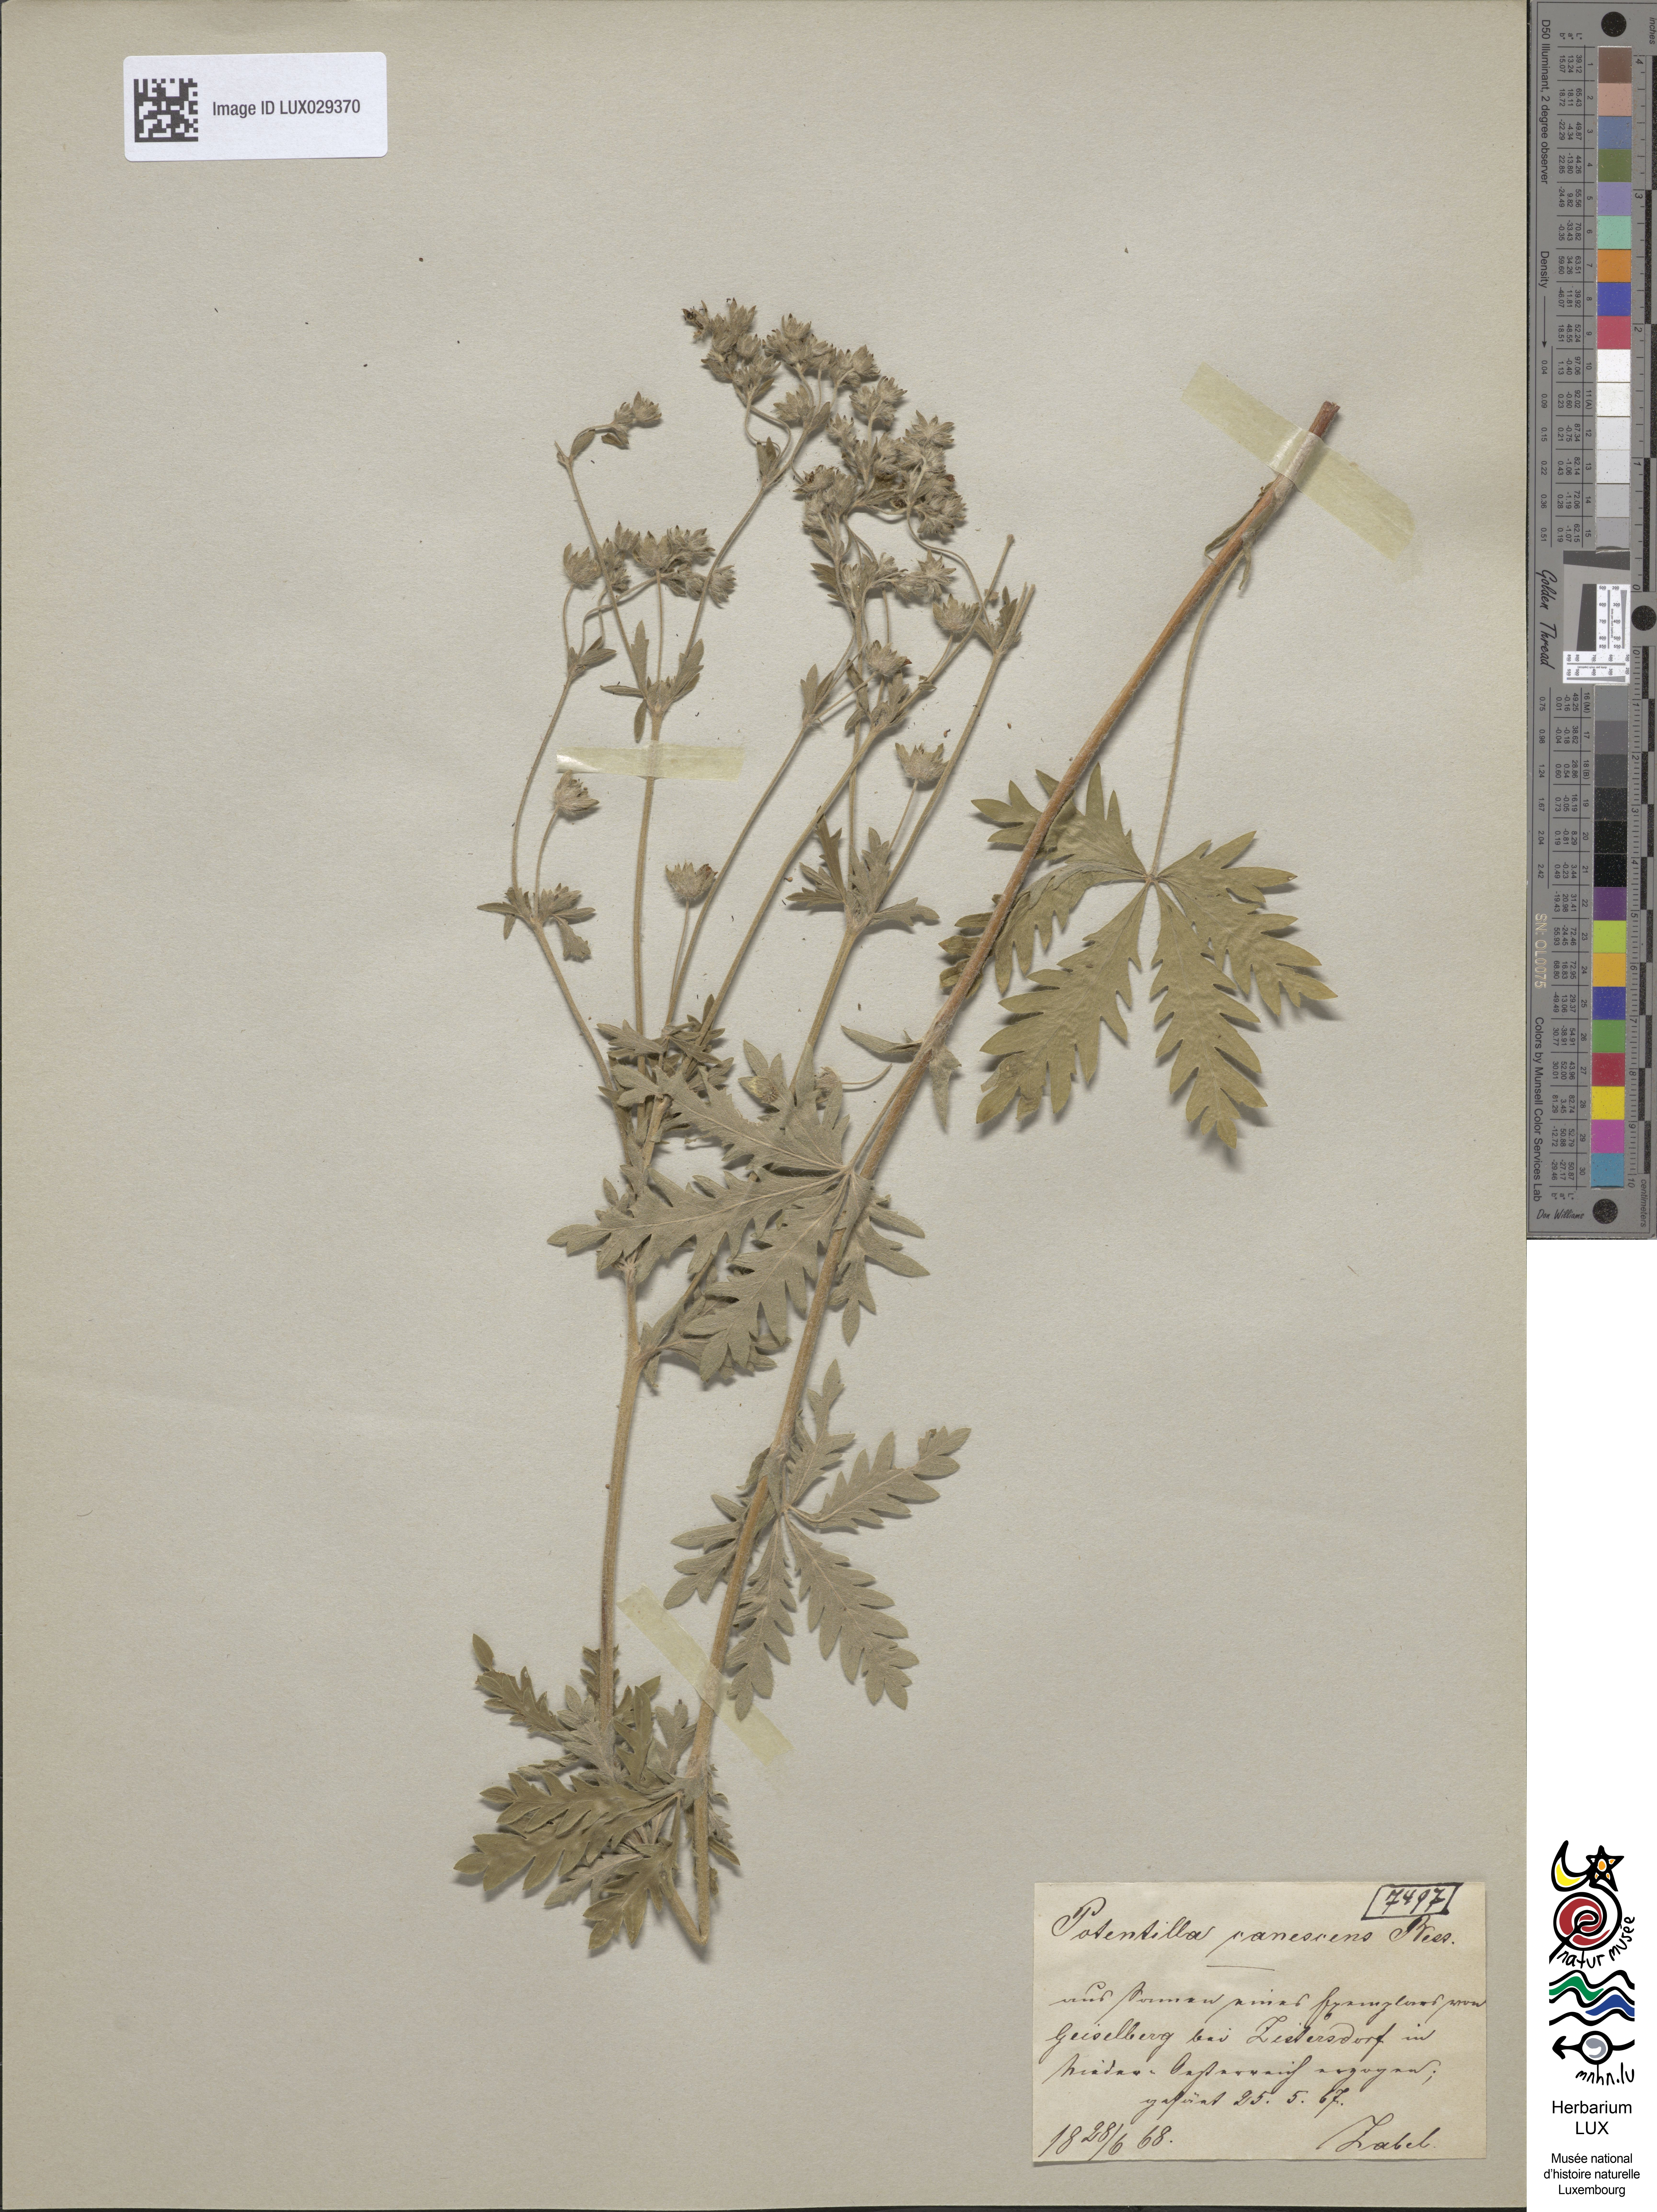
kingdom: Plantae
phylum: Tracheophyta
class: Magnoliopsida
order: Rosales
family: Rosaceae
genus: Potentilla
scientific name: Potentilla inclinata
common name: Grey cinquefoil
